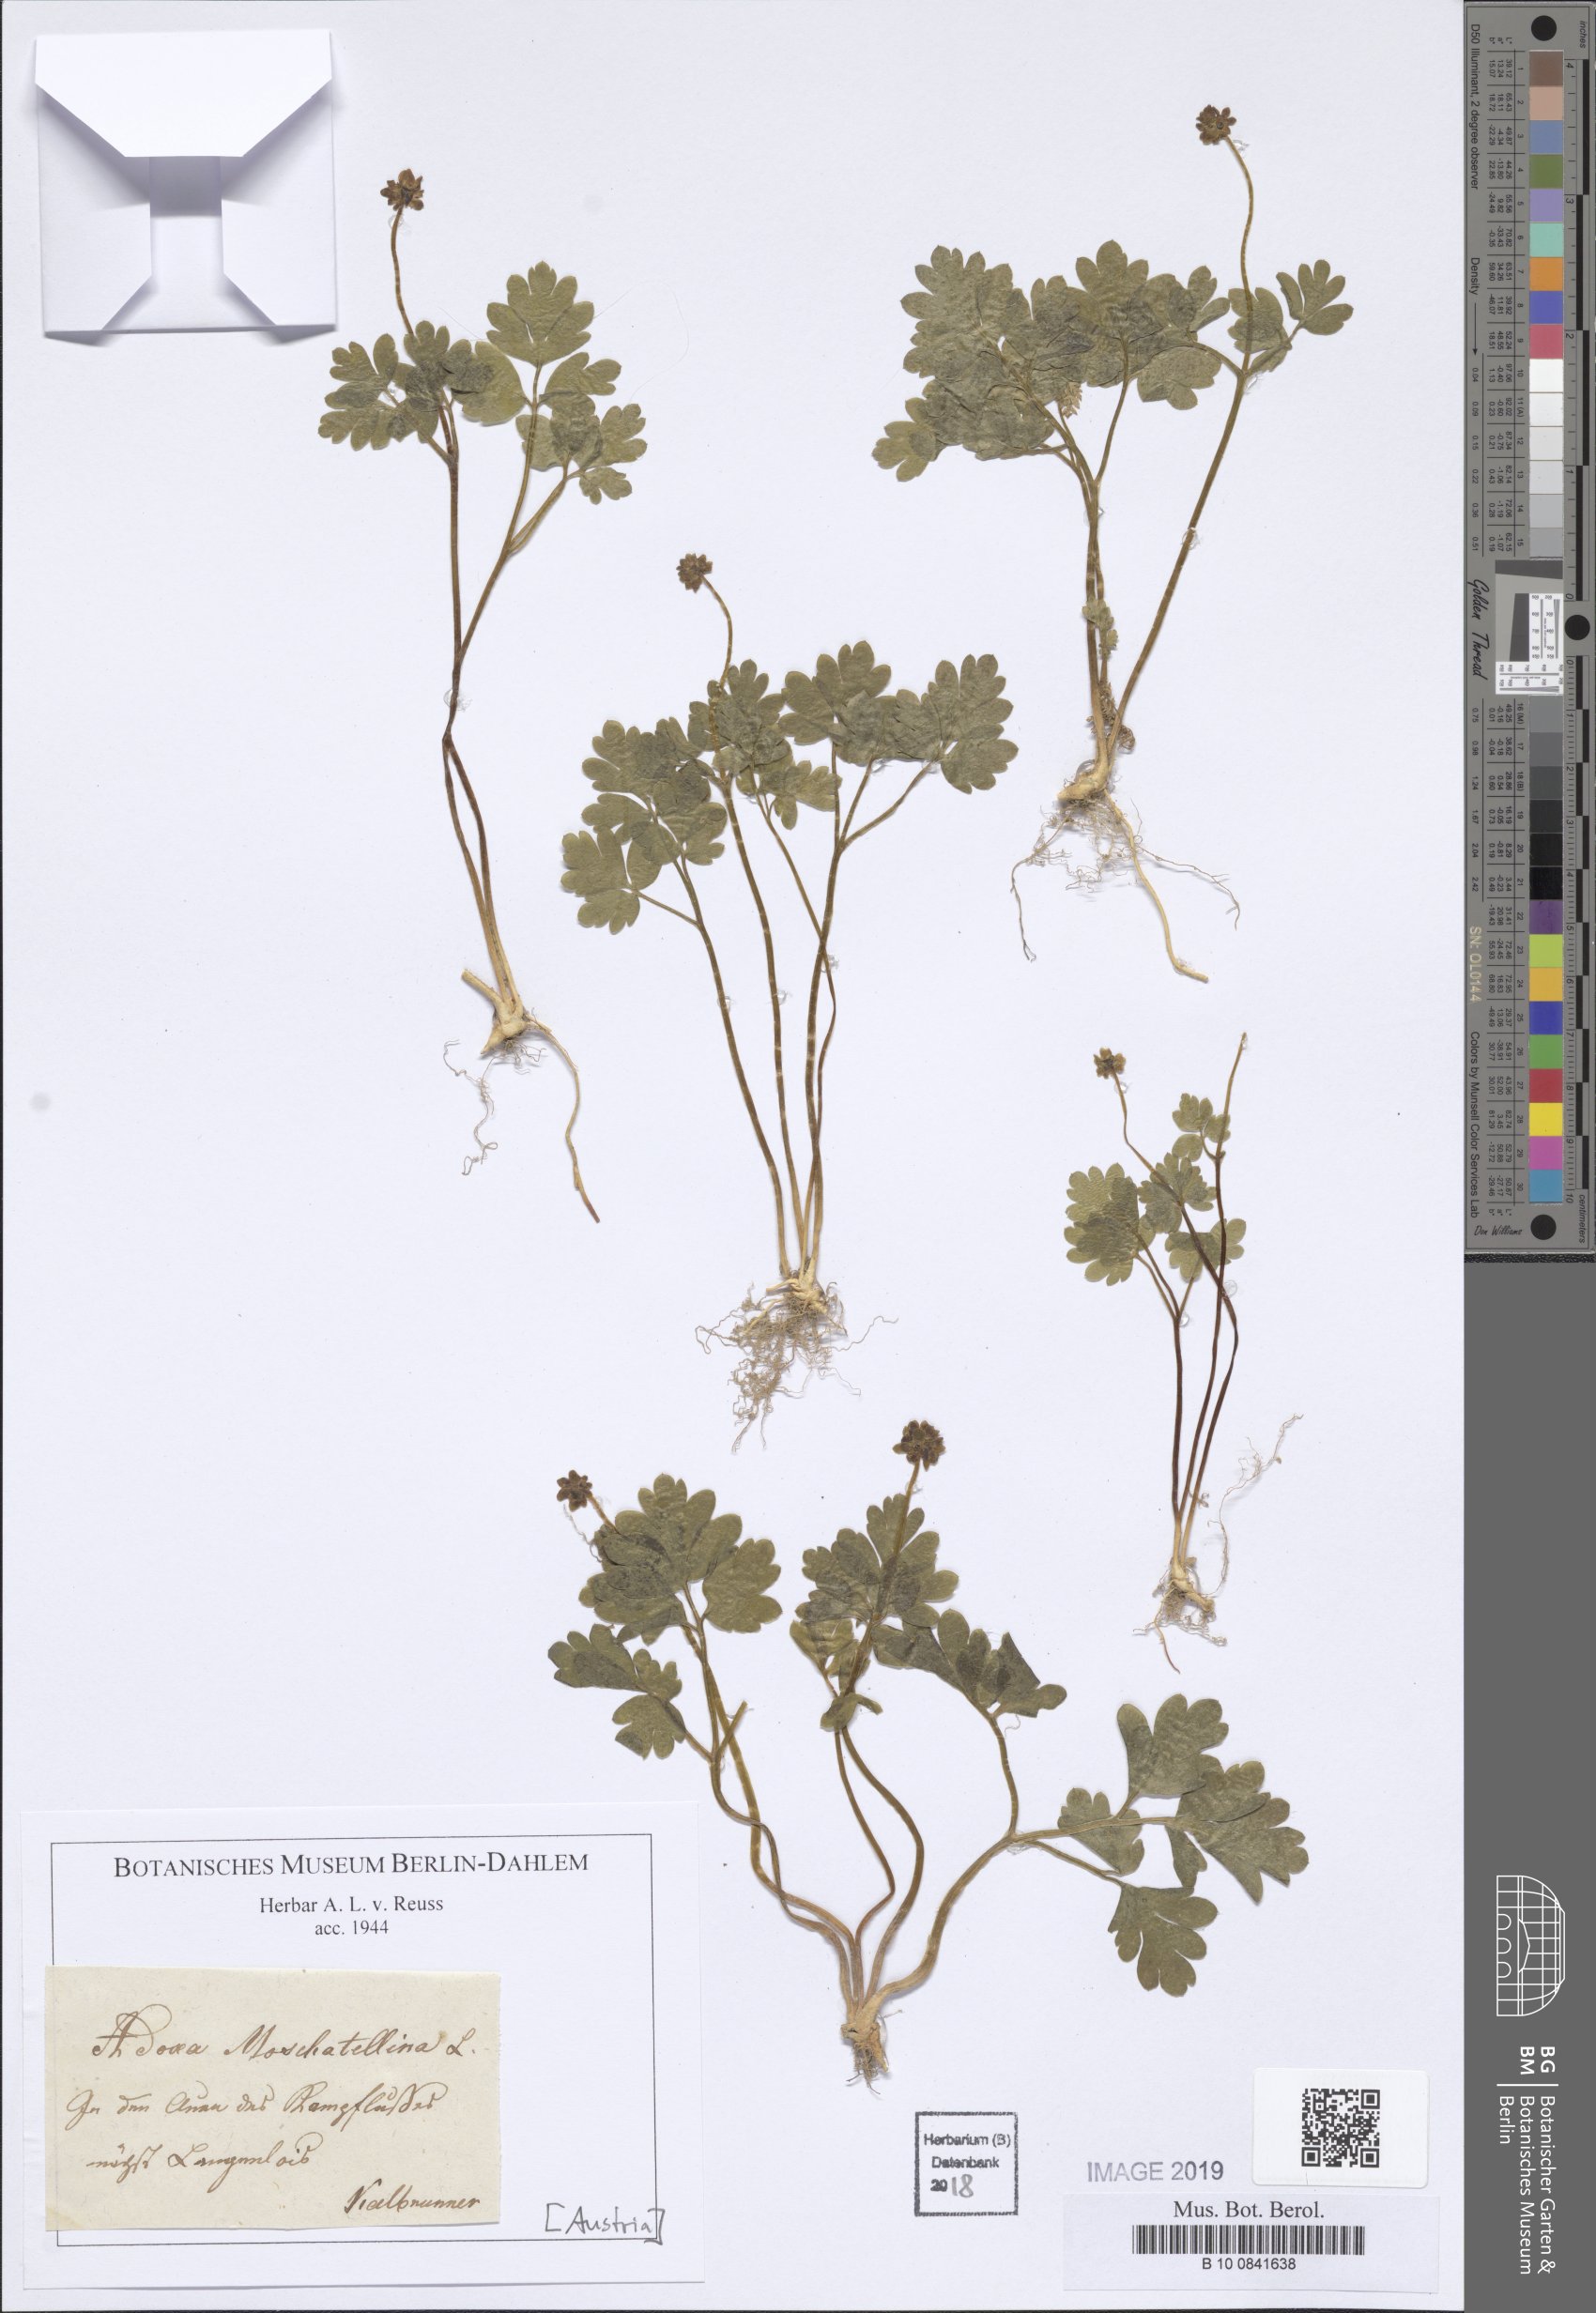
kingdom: Plantae
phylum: Tracheophyta
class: Magnoliopsida
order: Dipsacales
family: Viburnaceae
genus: Adoxa
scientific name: Adoxa moschatellina
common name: Moschatel
